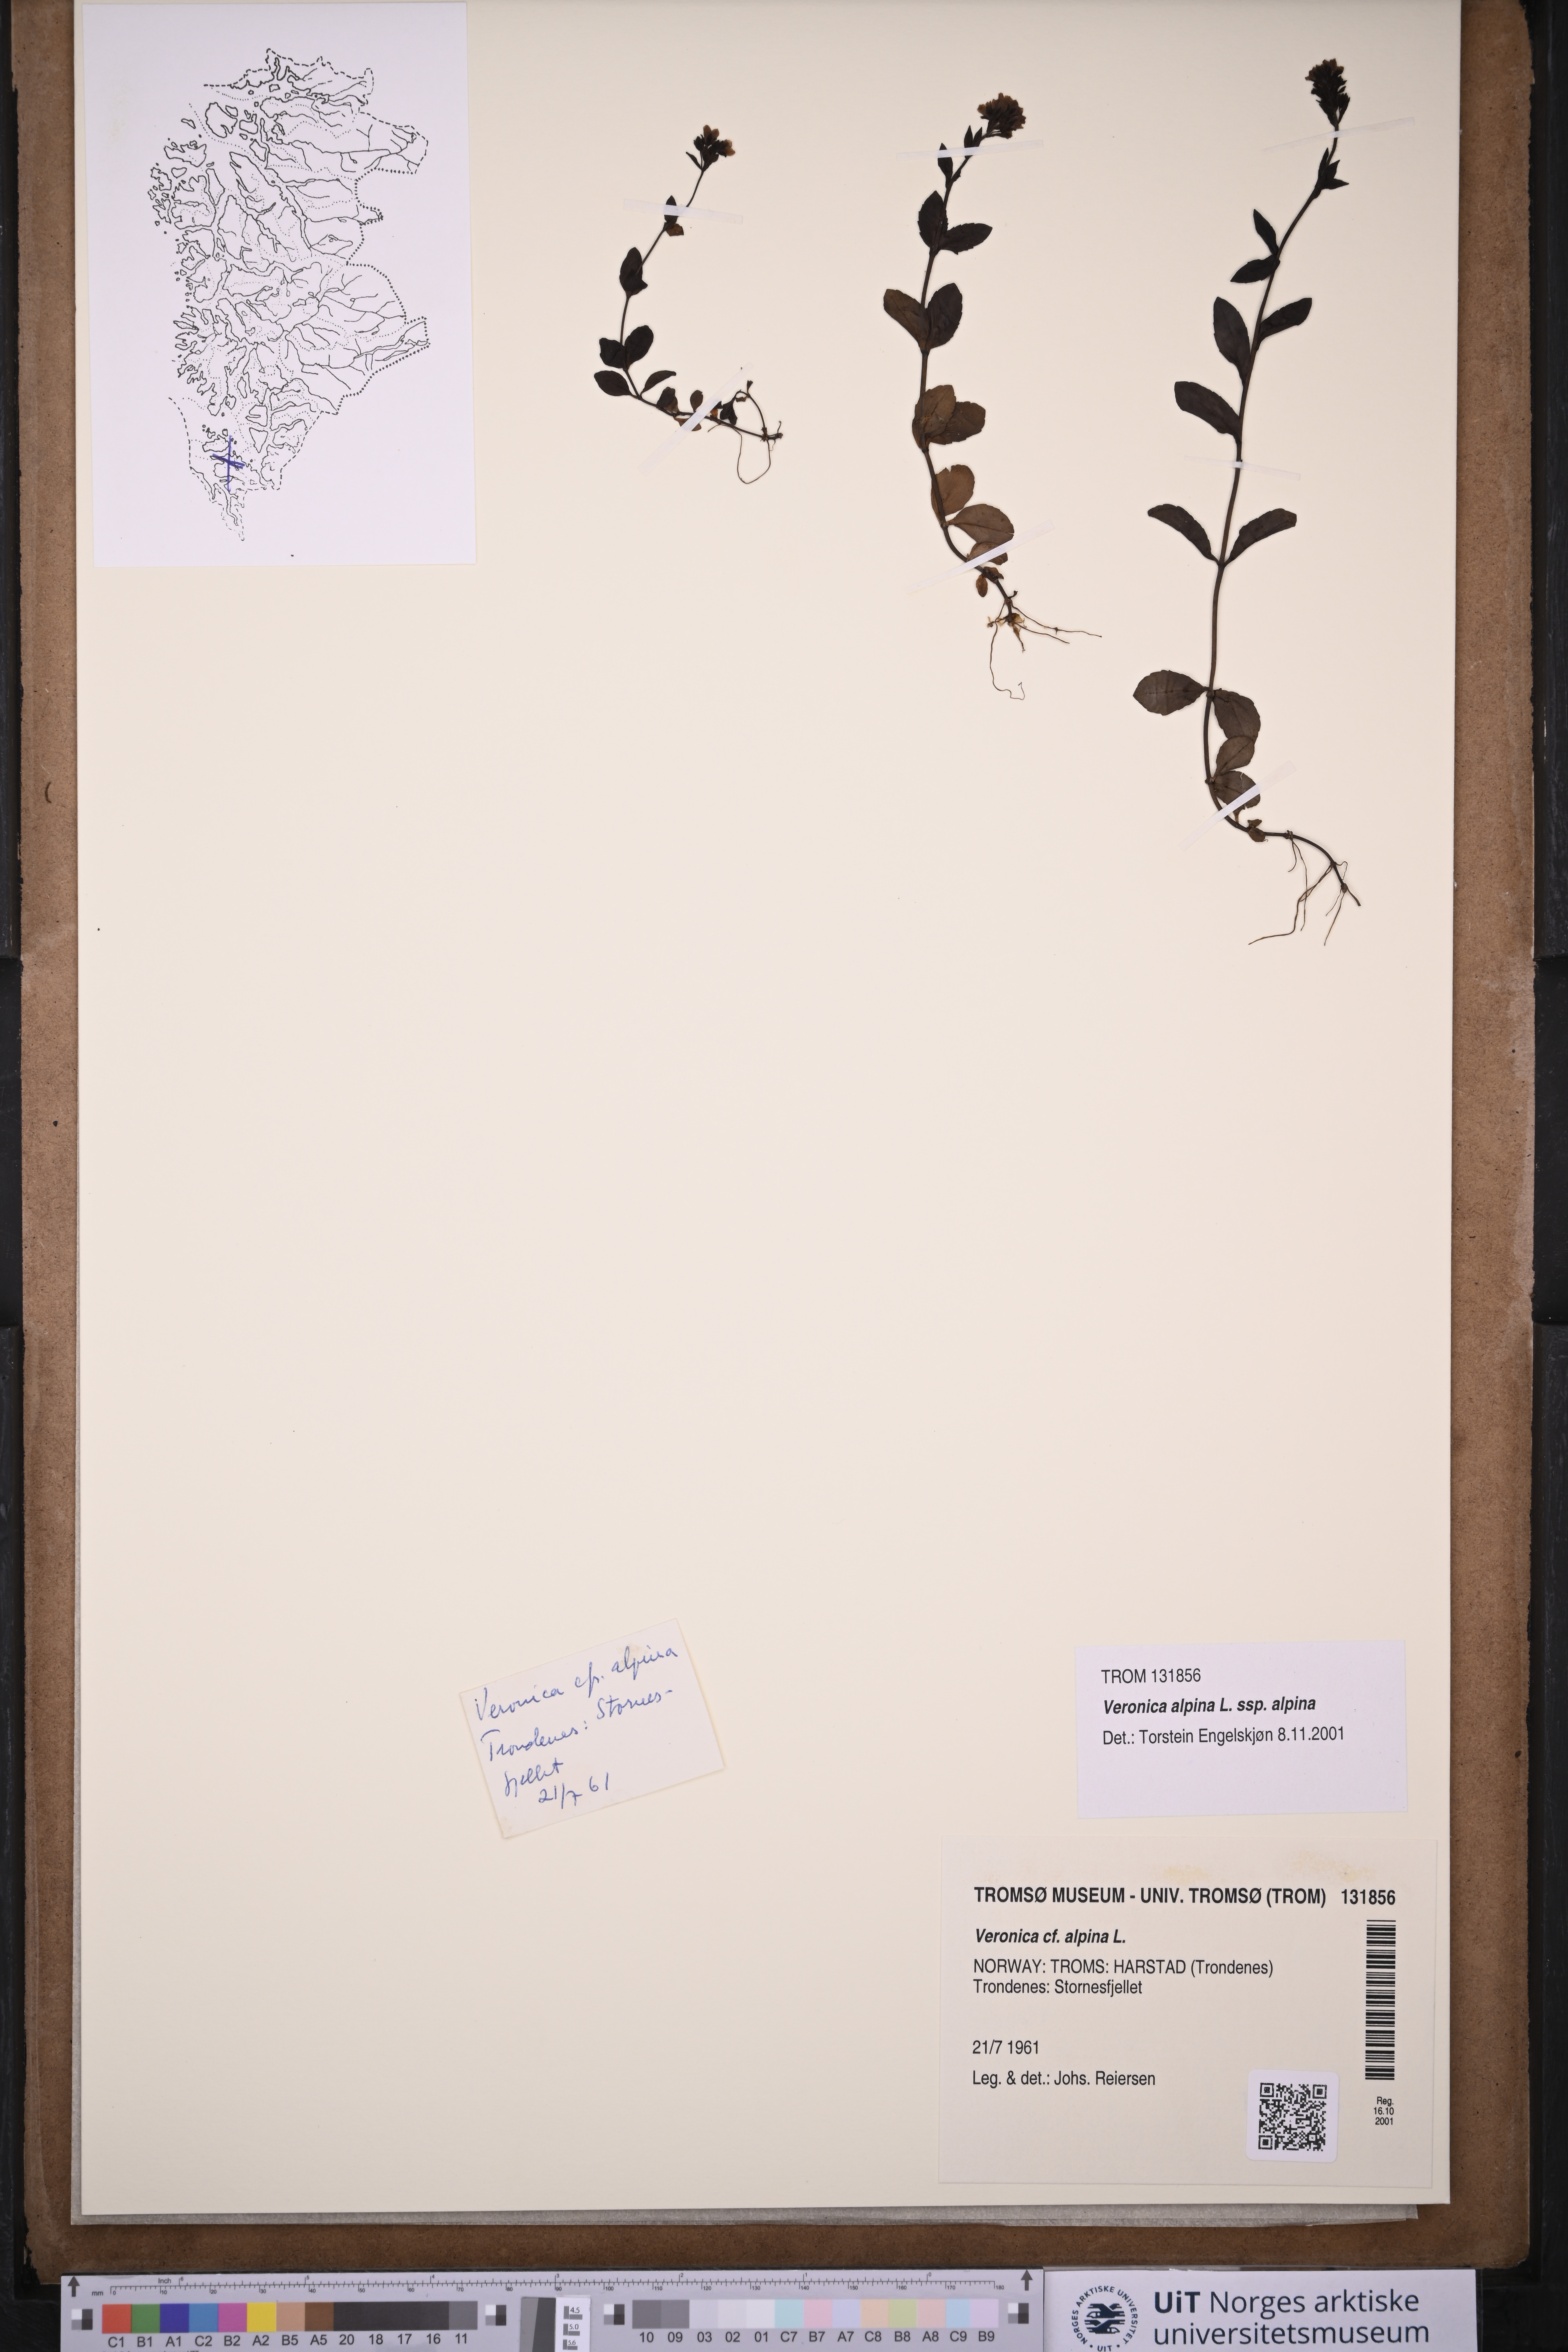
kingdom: Plantae
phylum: Tracheophyta
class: Magnoliopsida
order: Lamiales
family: Plantaginaceae
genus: Veronica
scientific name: Veronica alpina
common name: Alpine speedwell
